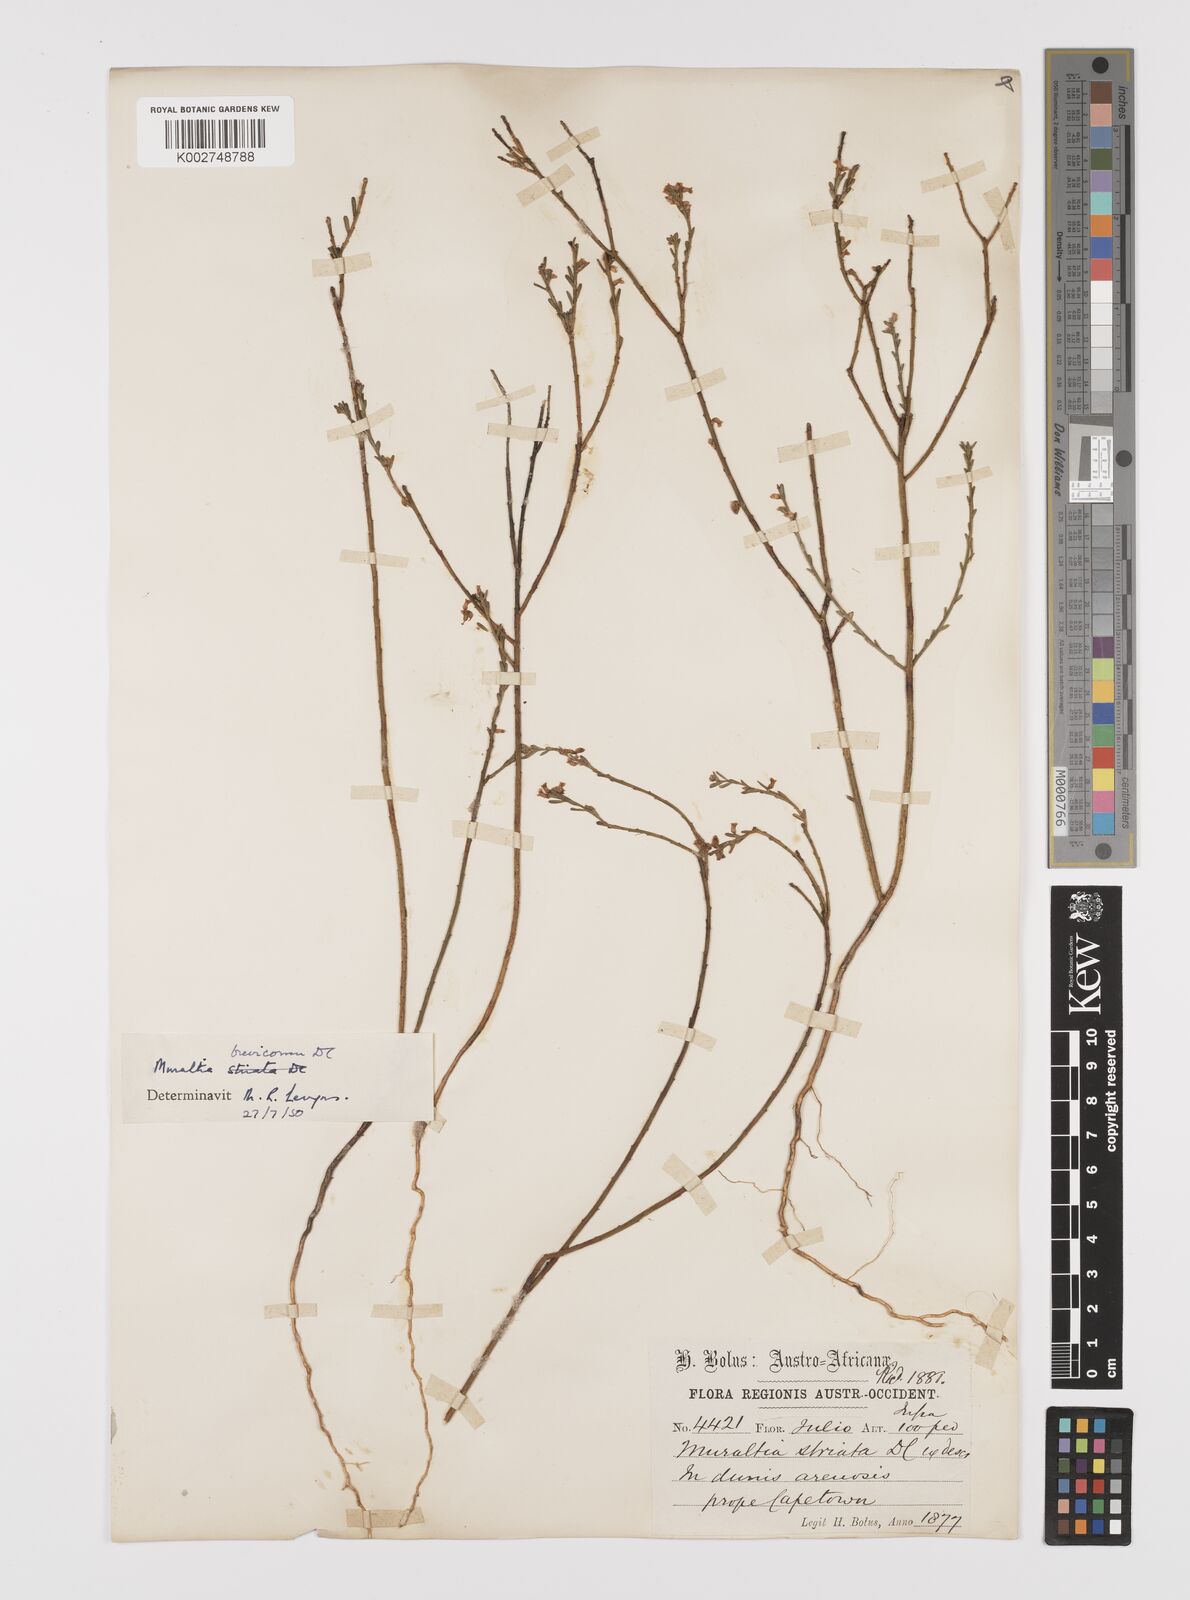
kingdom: Plantae
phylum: Tracheophyta
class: Magnoliopsida
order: Fabales
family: Polygalaceae
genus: Muraltia
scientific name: Muraltia striata
